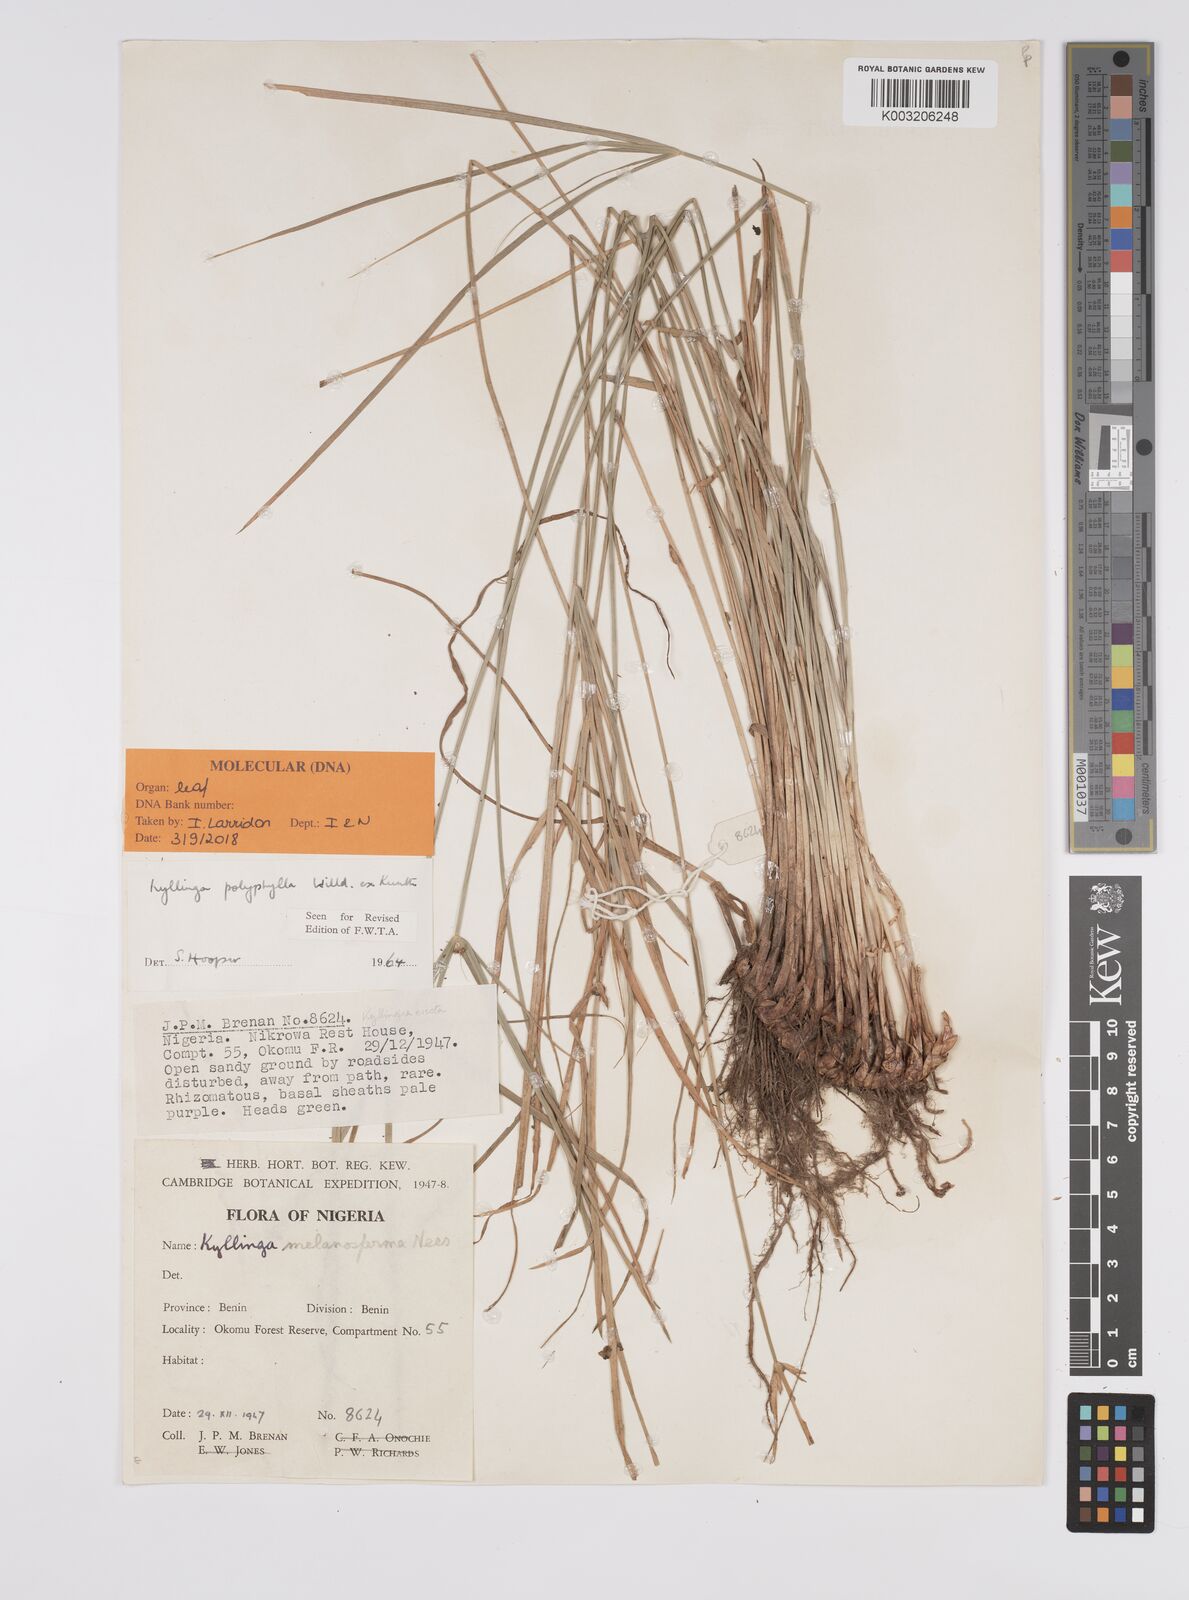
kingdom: Plantae
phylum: Tracheophyta
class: Liliopsida
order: Poales
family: Cyperaceae
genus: Cyperus
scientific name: Cyperus
